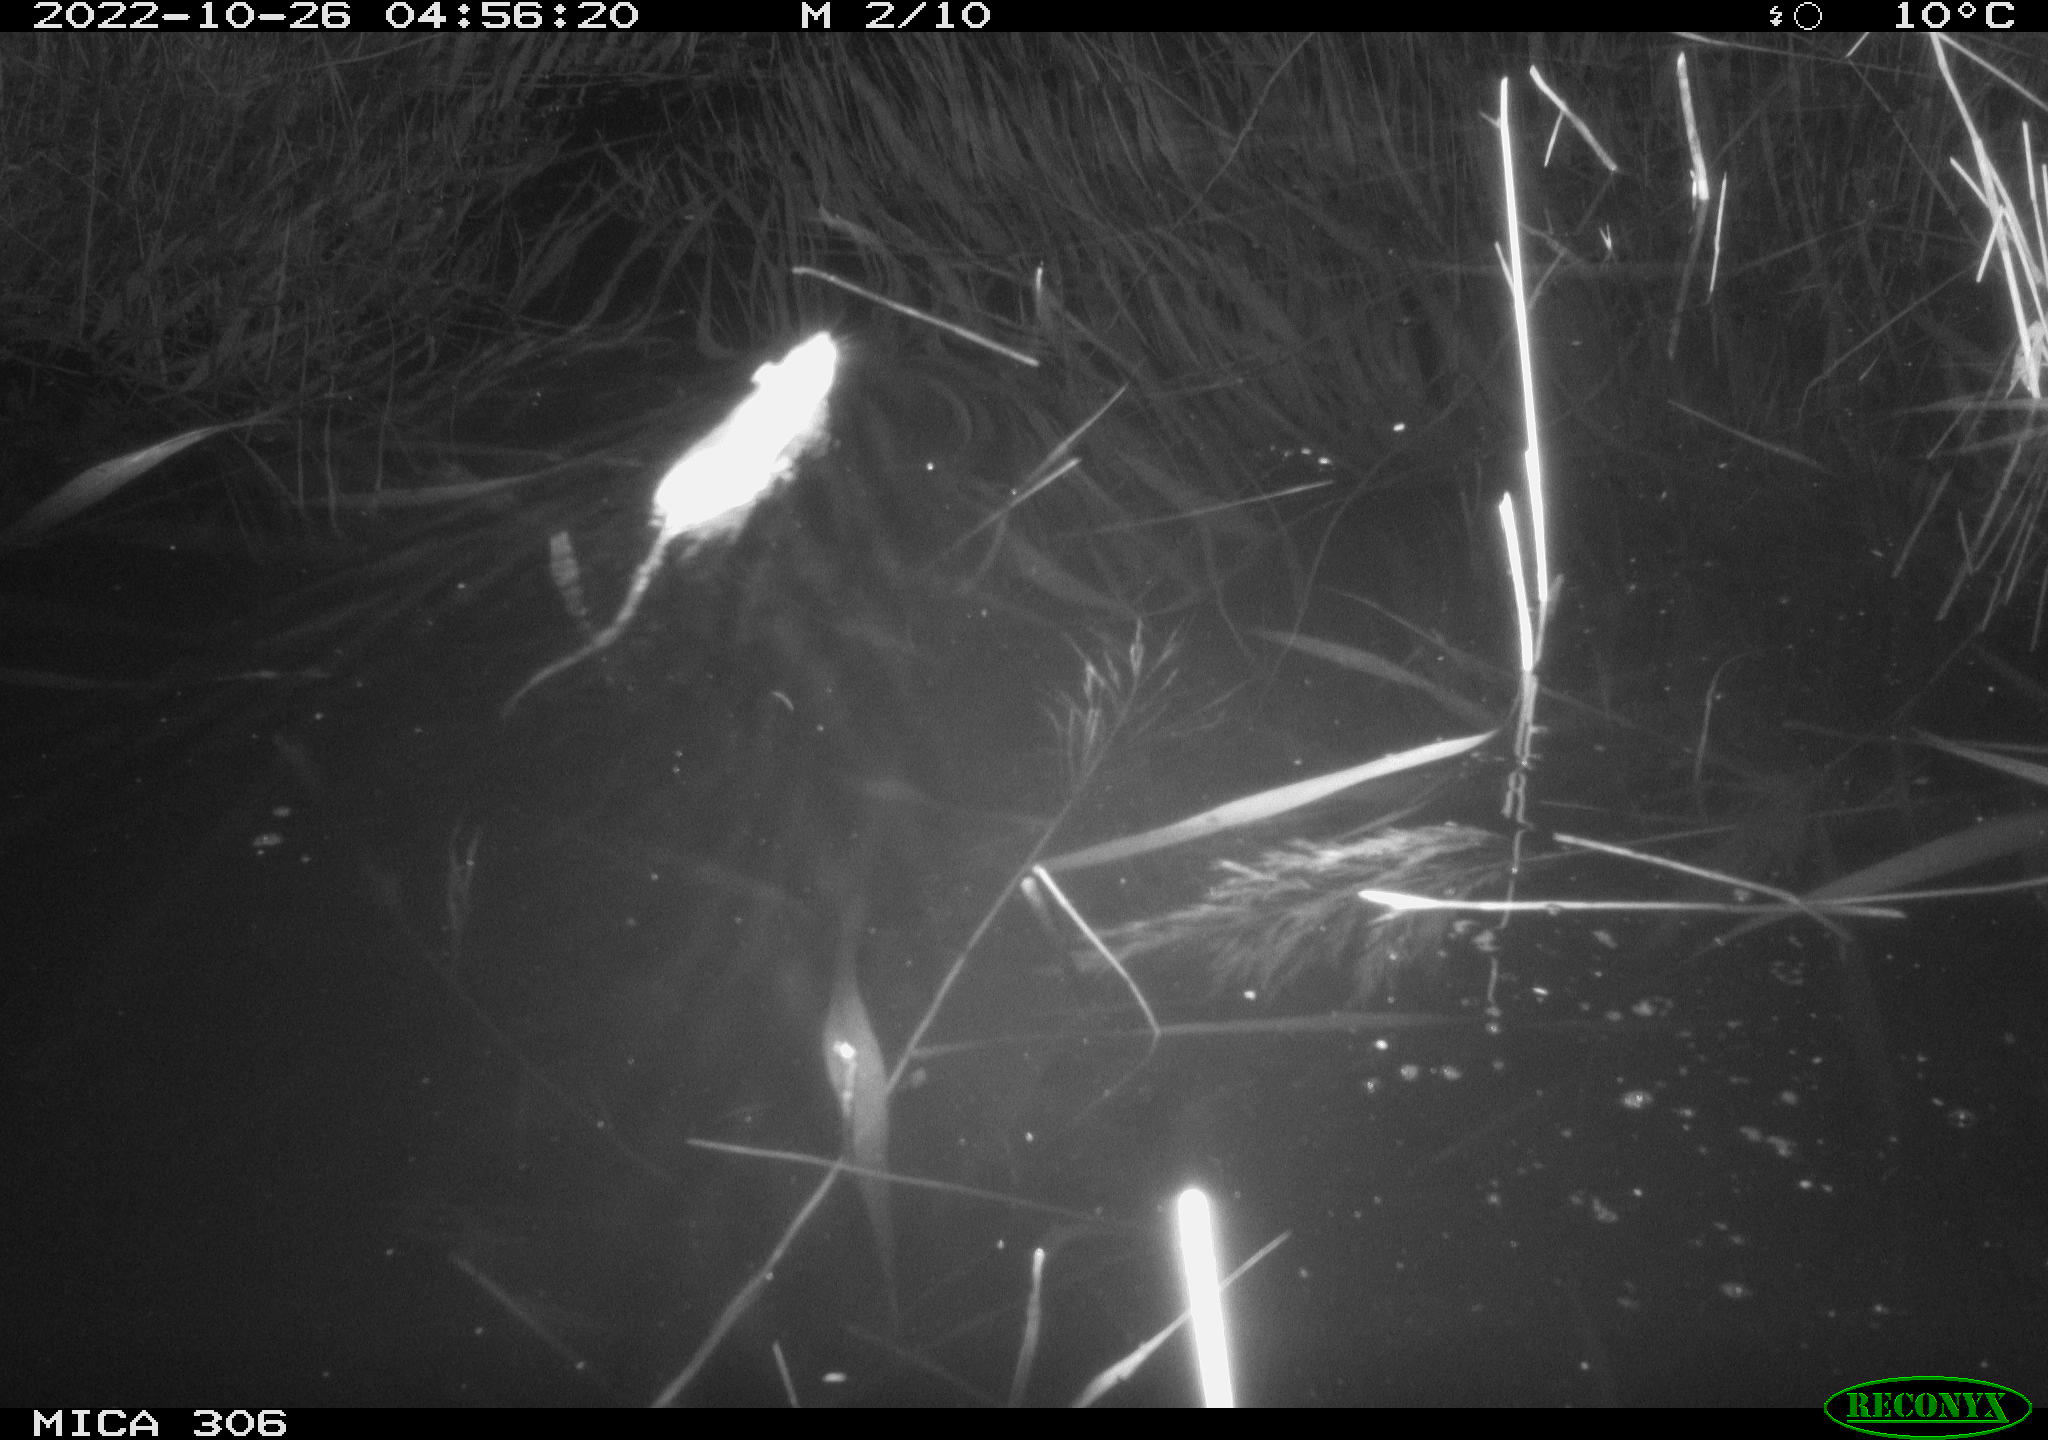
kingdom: Animalia
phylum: Chordata
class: Mammalia
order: Rodentia
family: Muridae
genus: Rattus
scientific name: Rattus norvegicus
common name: Brown rat
